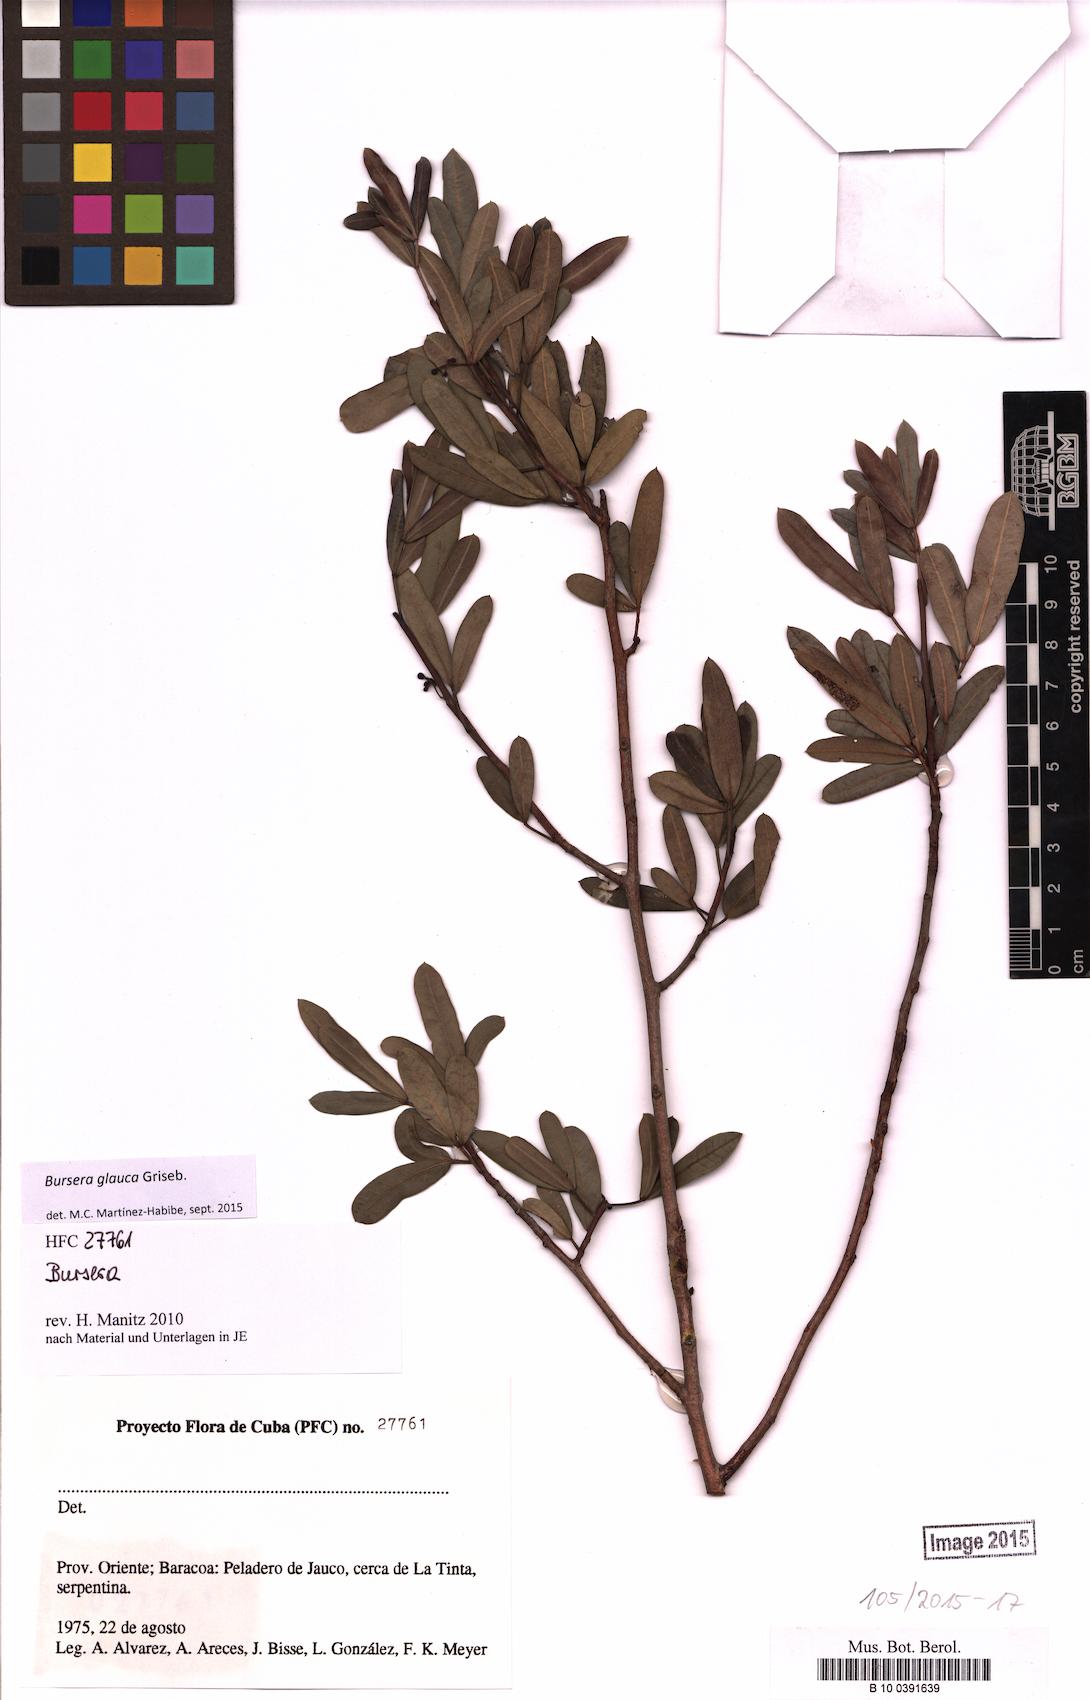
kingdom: Plantae
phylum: Tracheophyta
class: Magnoliopsida
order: Sapindales
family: Burseraceae
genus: Bursera
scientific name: Bursera glauca
